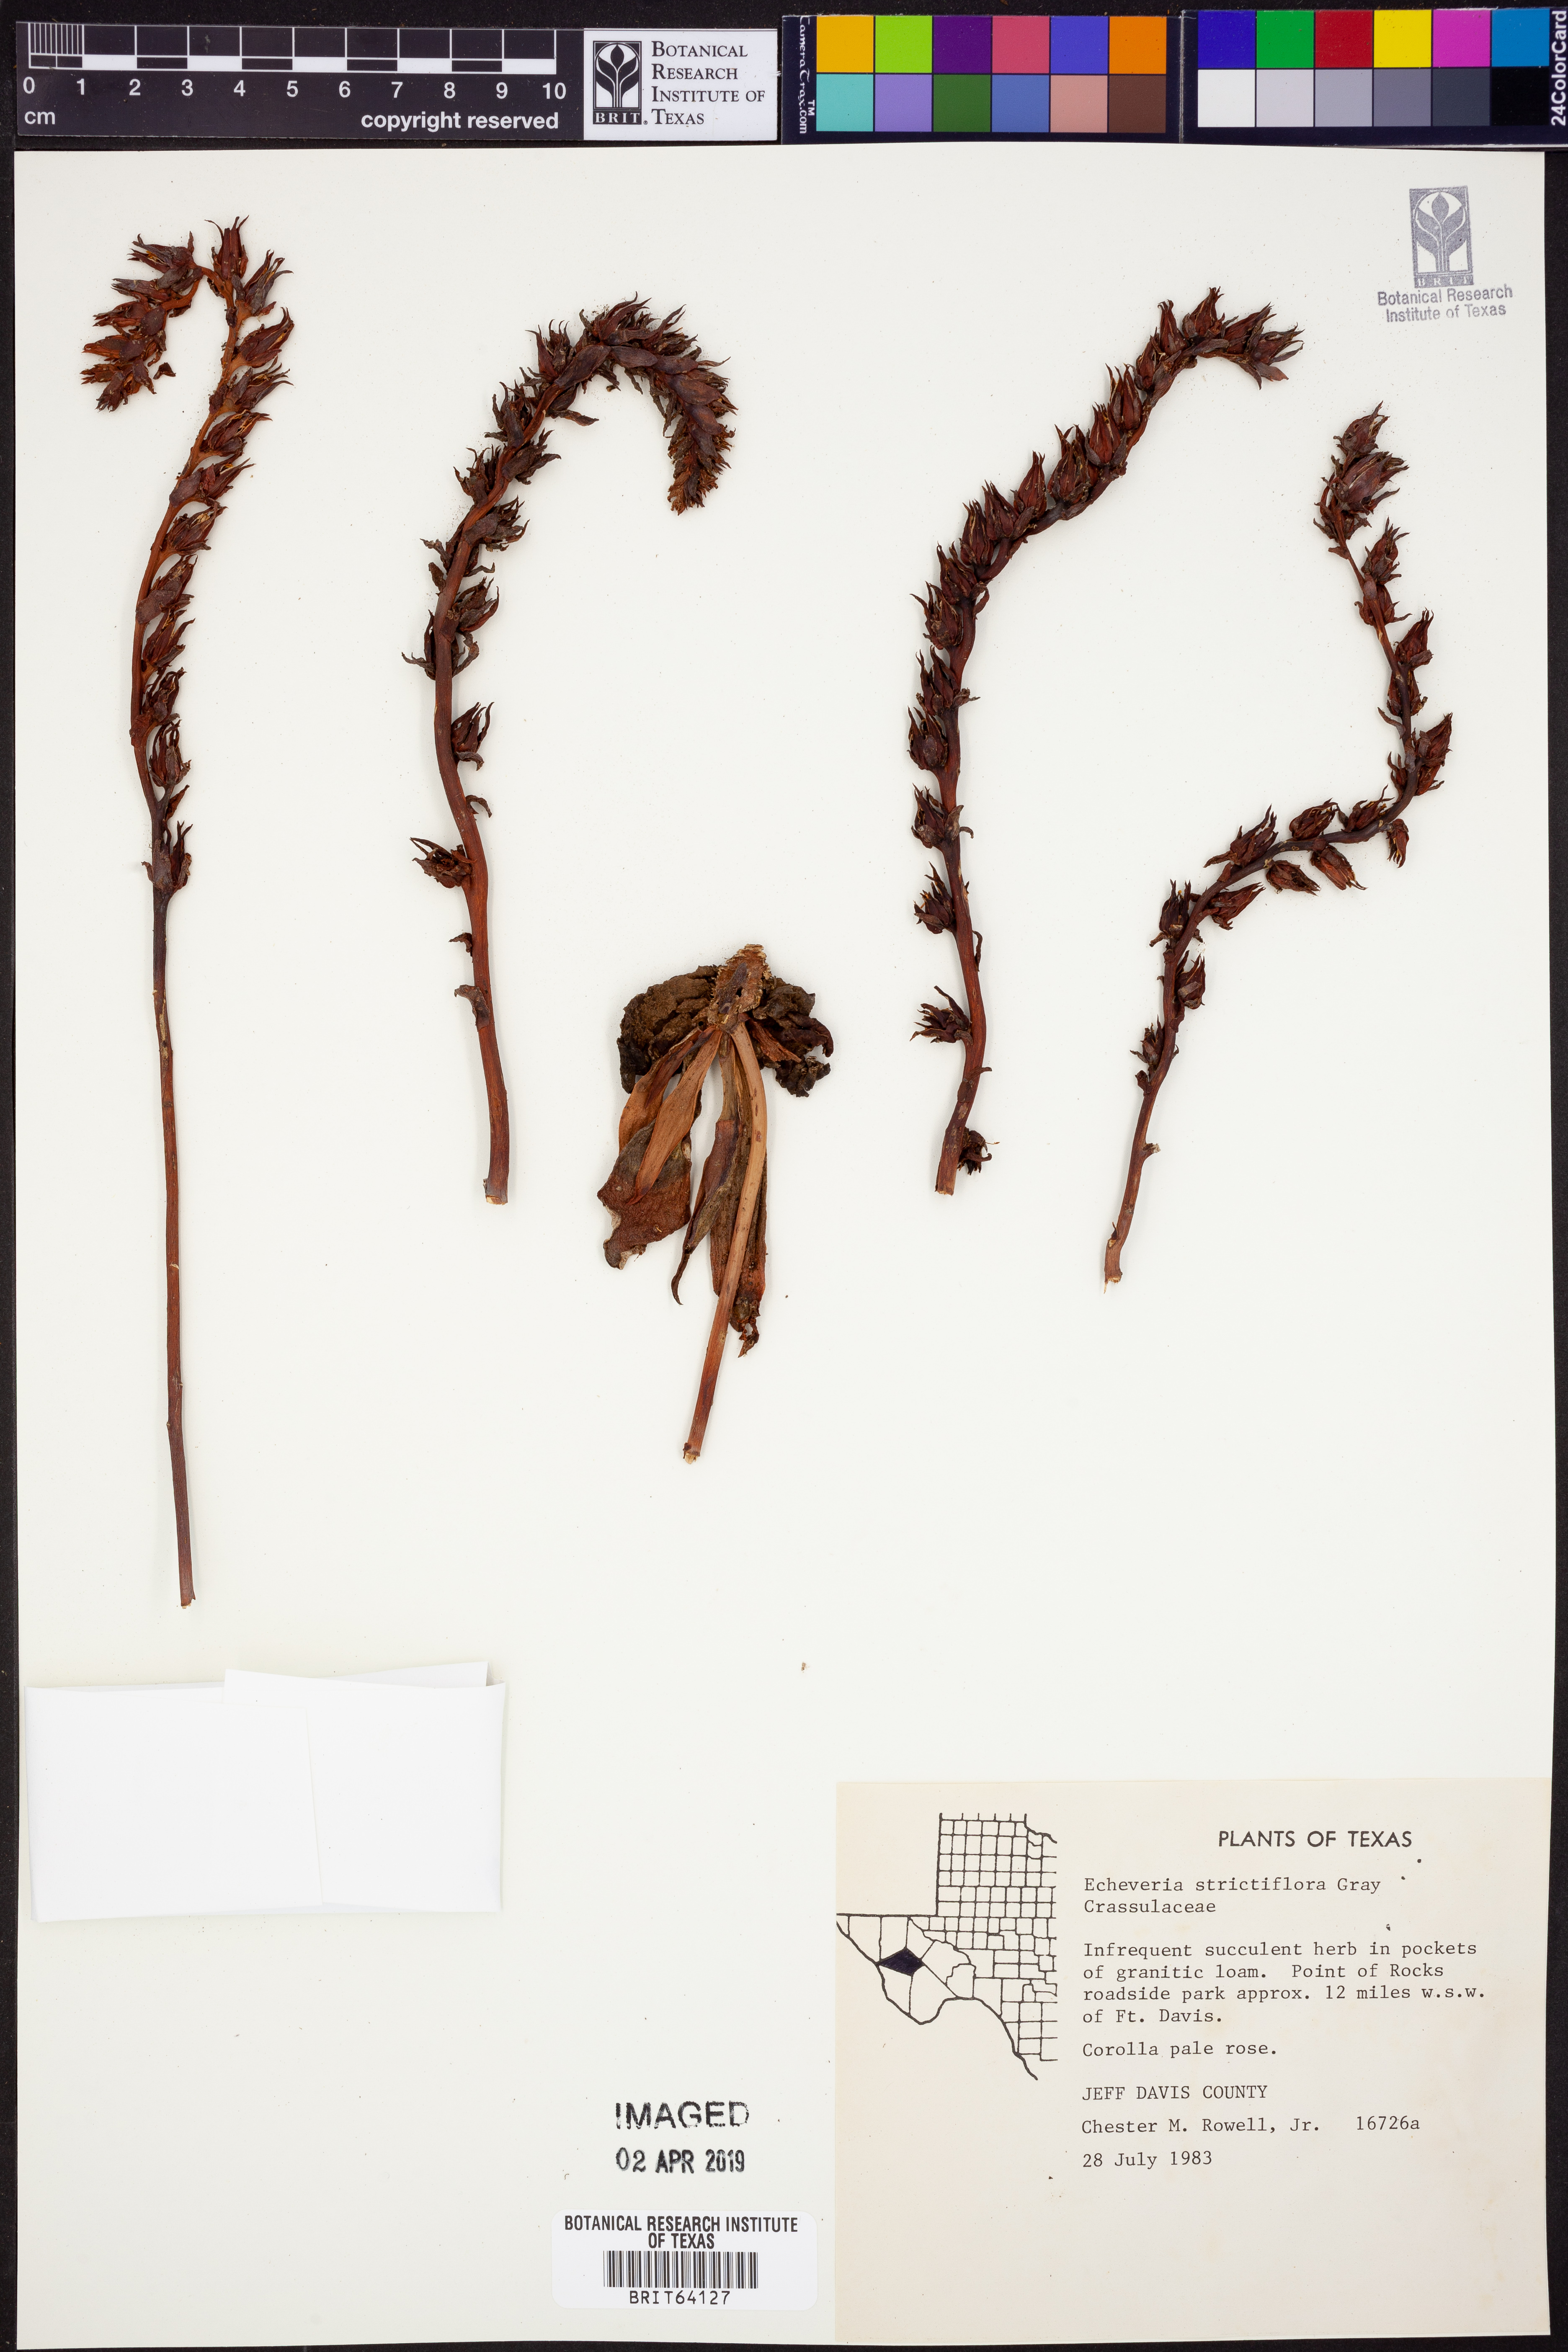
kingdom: Plantae
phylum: Tracheophyta
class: Magnoliopsida
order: Saxifragales
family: Crassulaceae
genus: Echeveria
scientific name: Echeveria strictiflora
